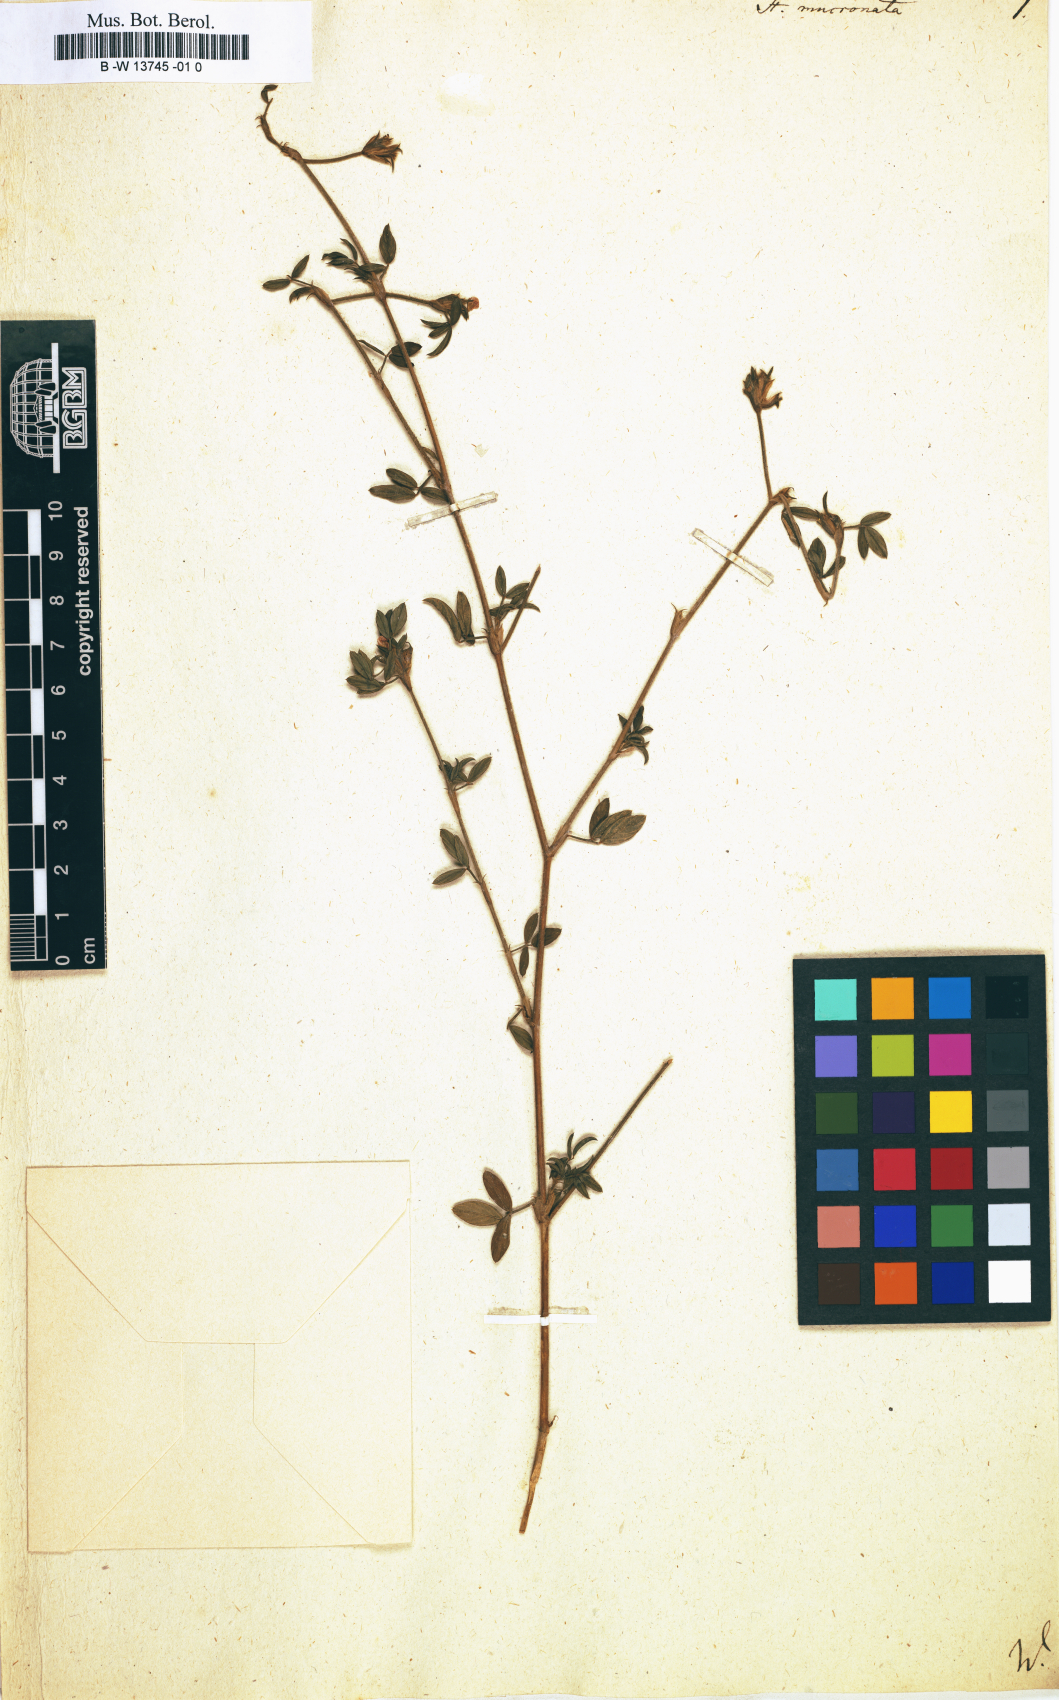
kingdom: Plantae
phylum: Tracheophyta
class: Magnoliopsida
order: Fabales
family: Fabaceae
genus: Stylosanthes
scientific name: Stylosanthes fruticosa
